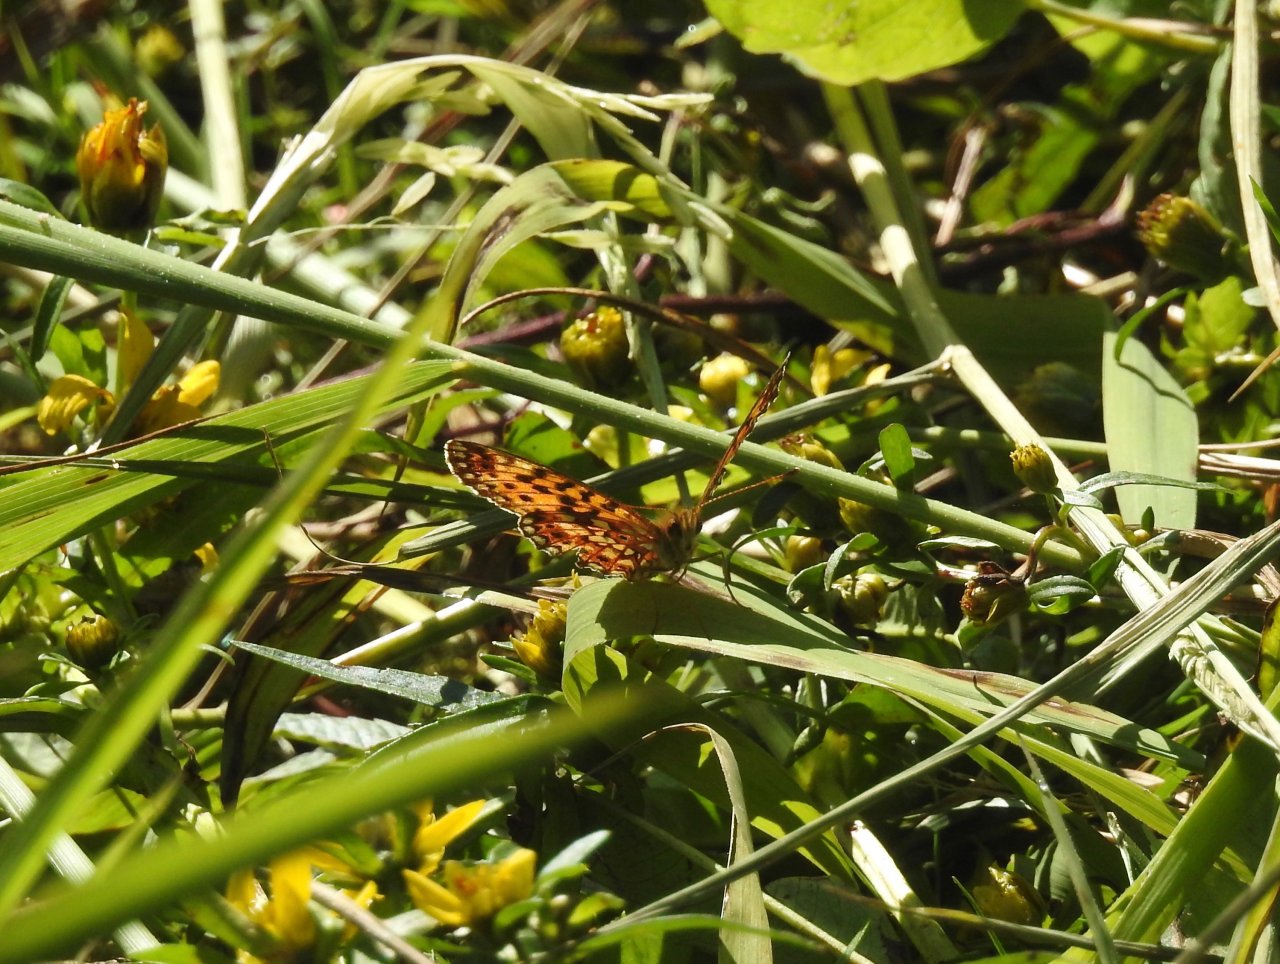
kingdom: Animalia
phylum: Arthropoda
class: Insecta
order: Lepidoptera
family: Nymphalidae
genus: Boloria
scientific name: Boloria selene
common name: Silver-bordered Fritillary
